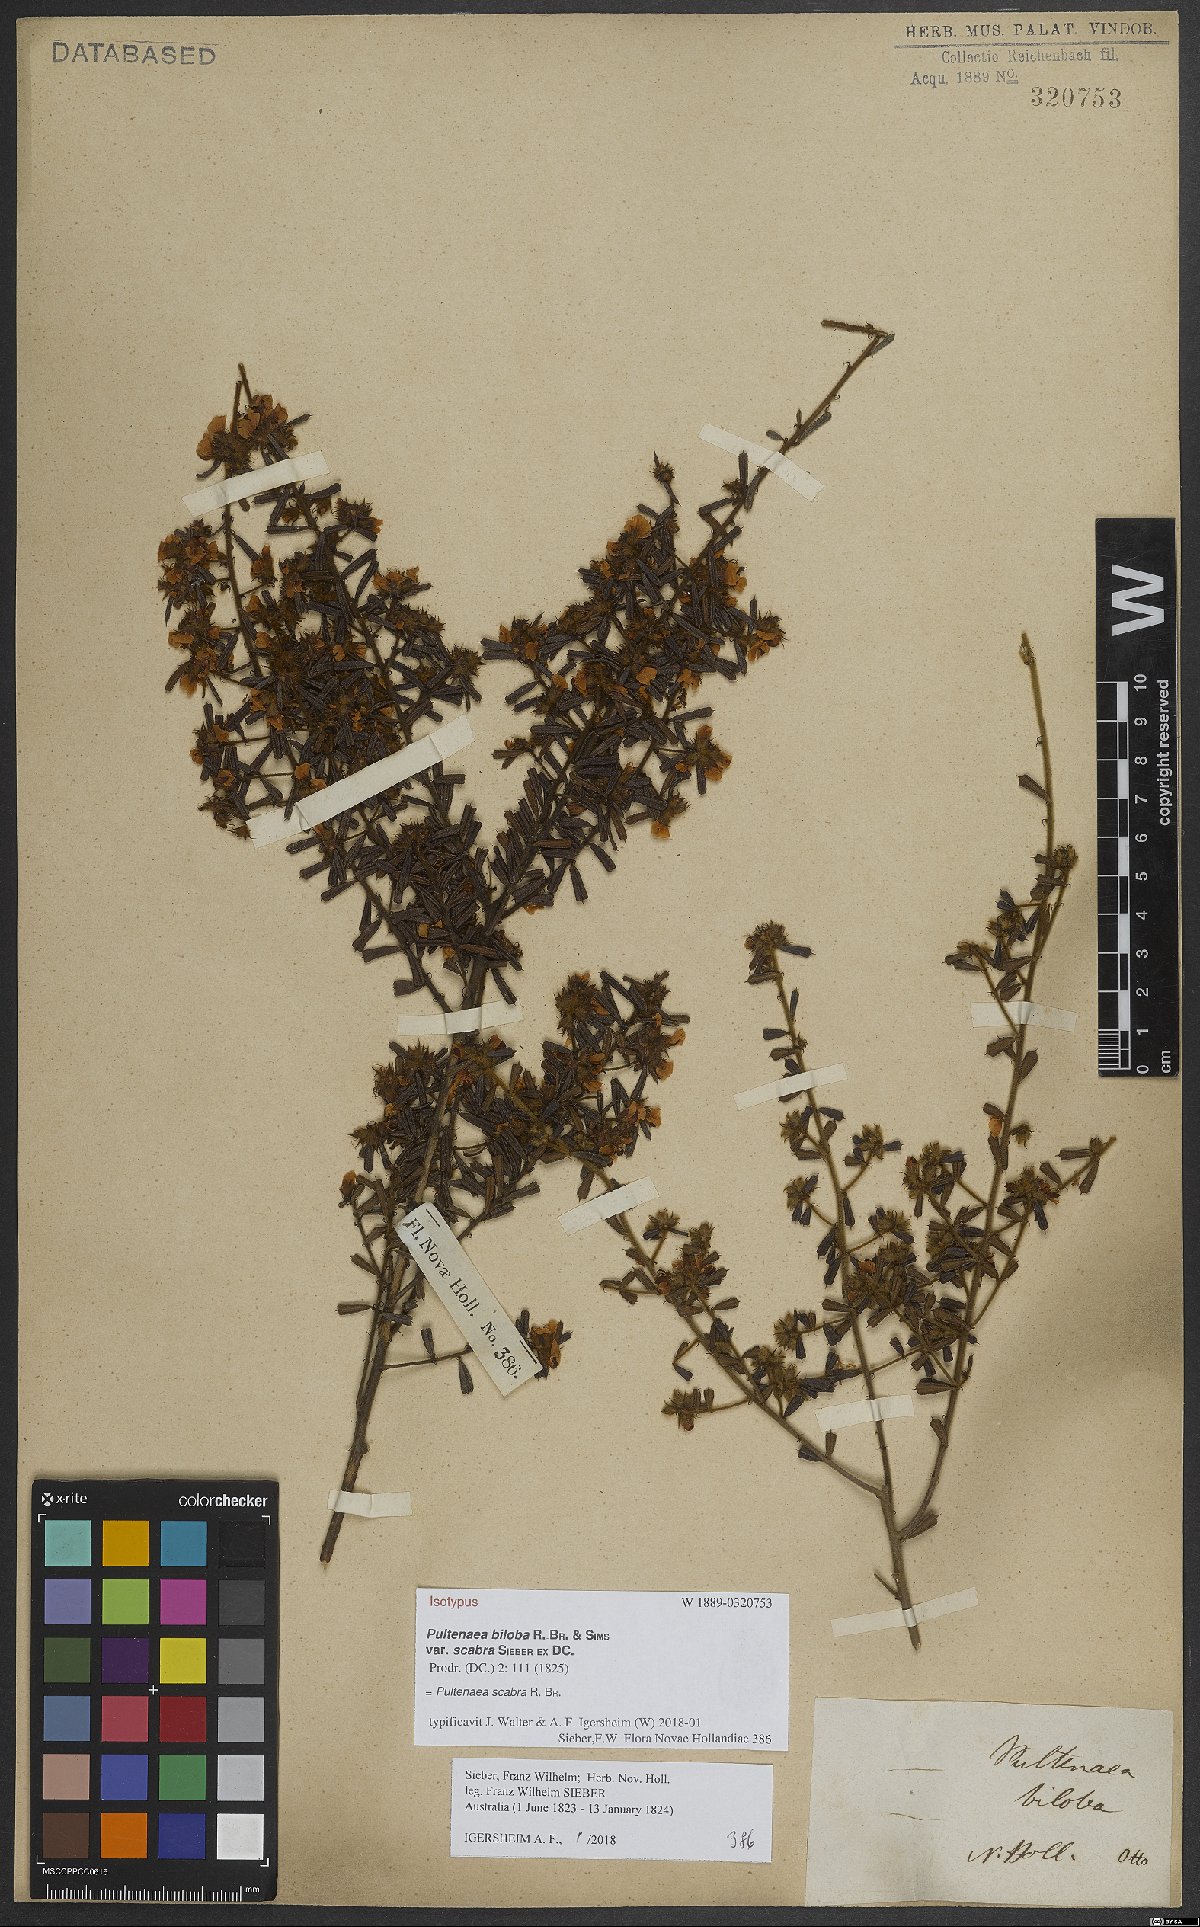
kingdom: Plantae
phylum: Tracheophyta
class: Magnoliopsida
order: Fabales
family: Fabaceae
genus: Pultenaea
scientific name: Pultenaea scabra
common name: Rough bush-pea
